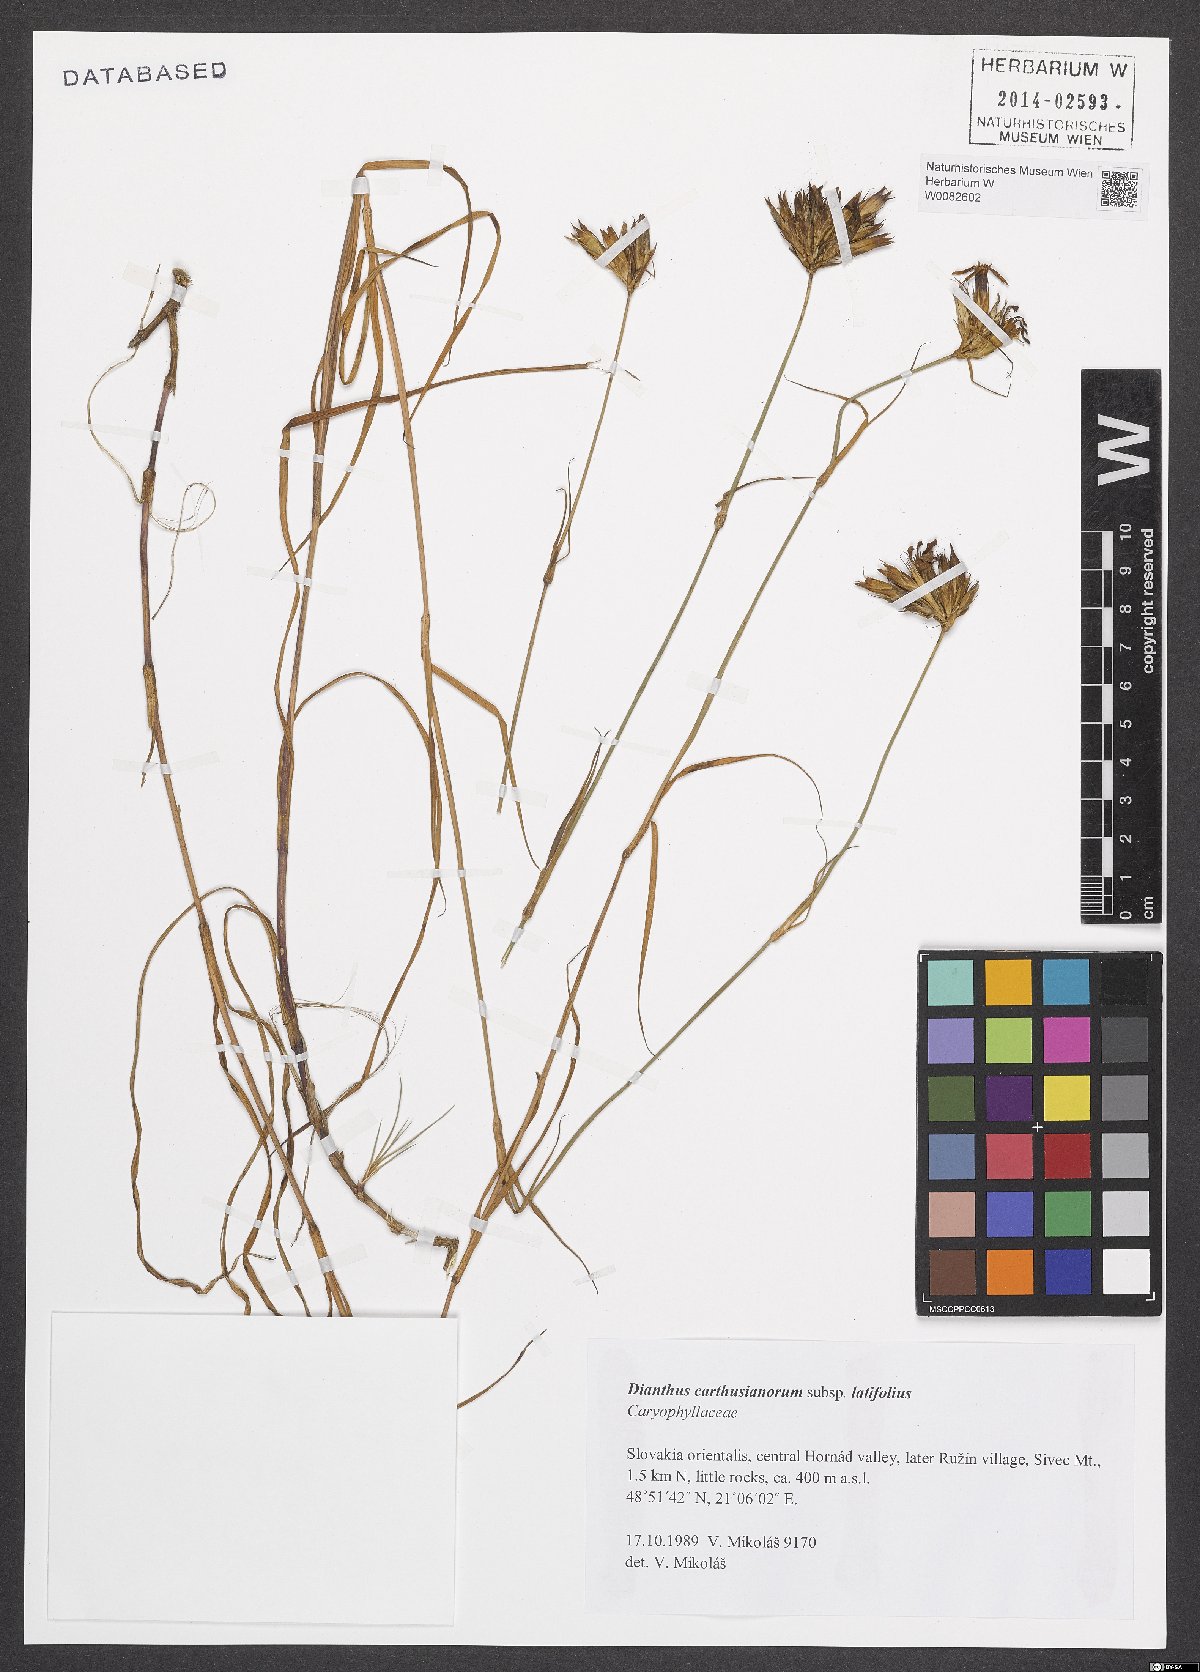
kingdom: Plantae
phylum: Tracheophyta
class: Magnoliopsida
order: Caryophyllales
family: Caryophyllaceae
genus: Dianthus
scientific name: Dianthus carthusianorum
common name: Carthusian pink
